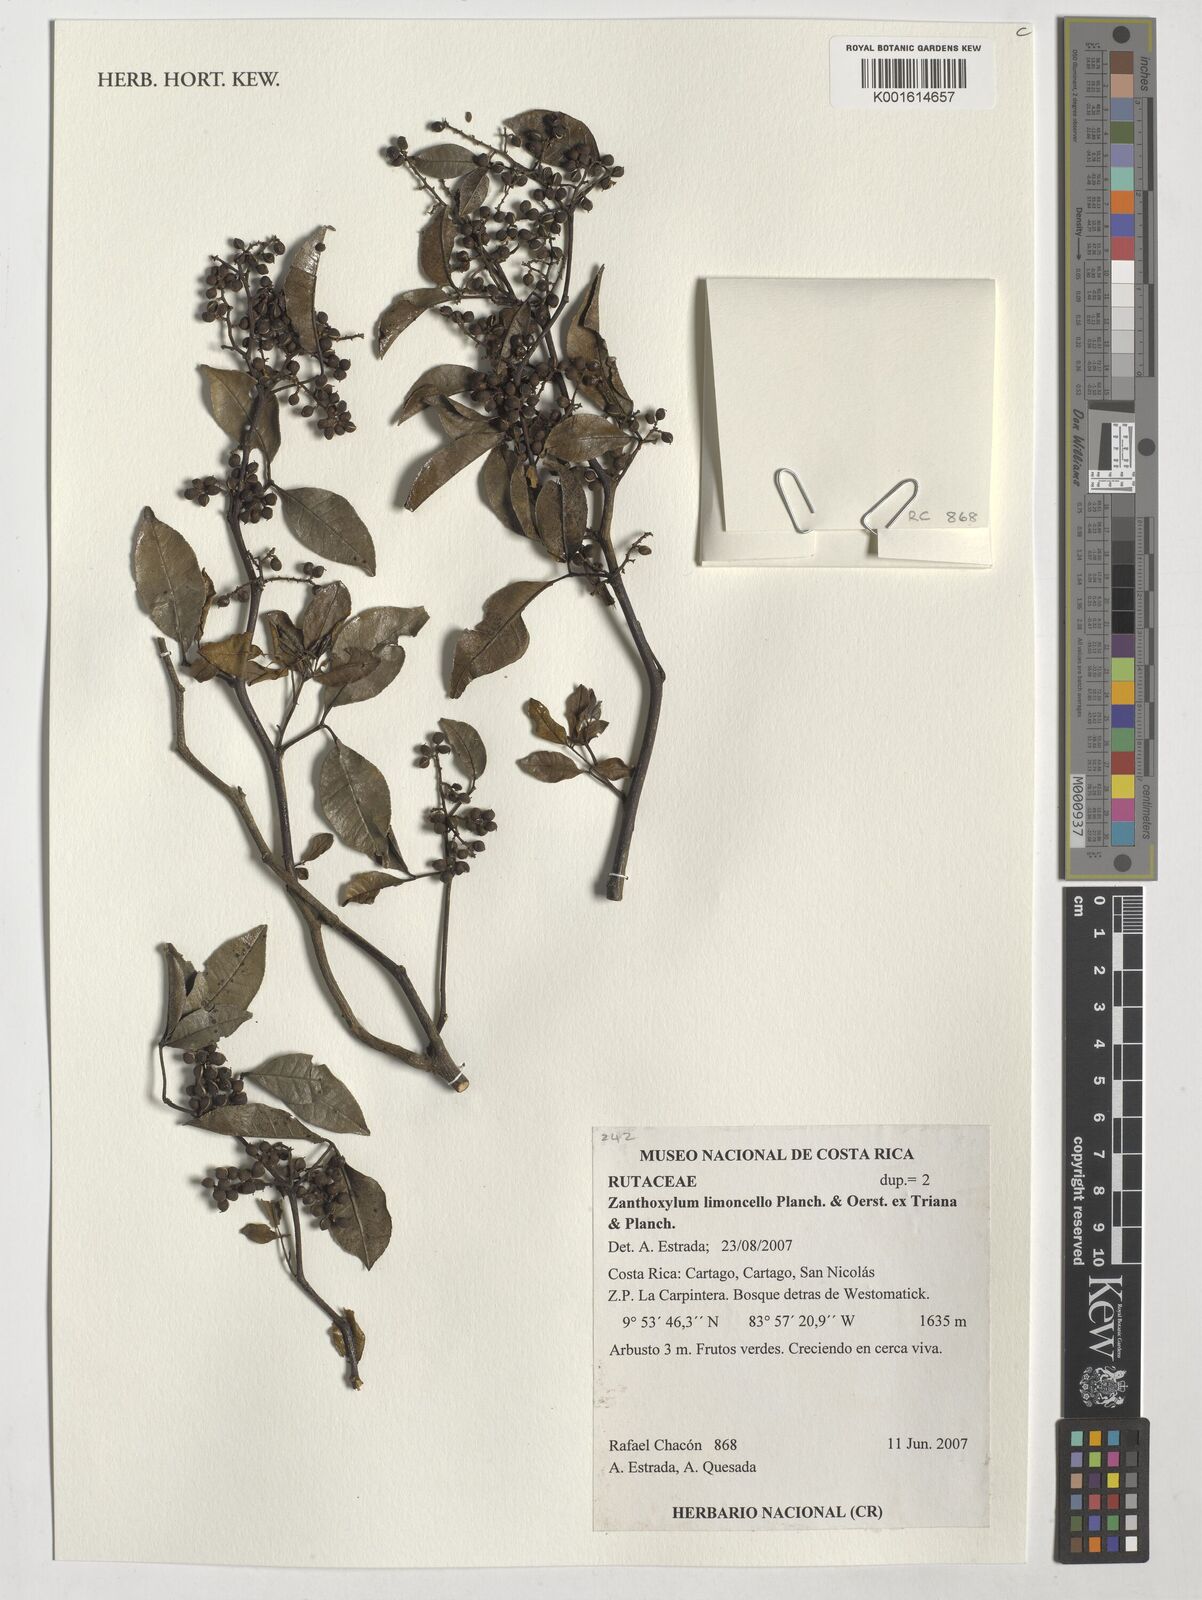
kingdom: Plantae
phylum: Tracheophyta
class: Magnoliopsida
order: Sapindales
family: Rutaceae
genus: Zanthoxylum
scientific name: Zanthoxylum limoncello
